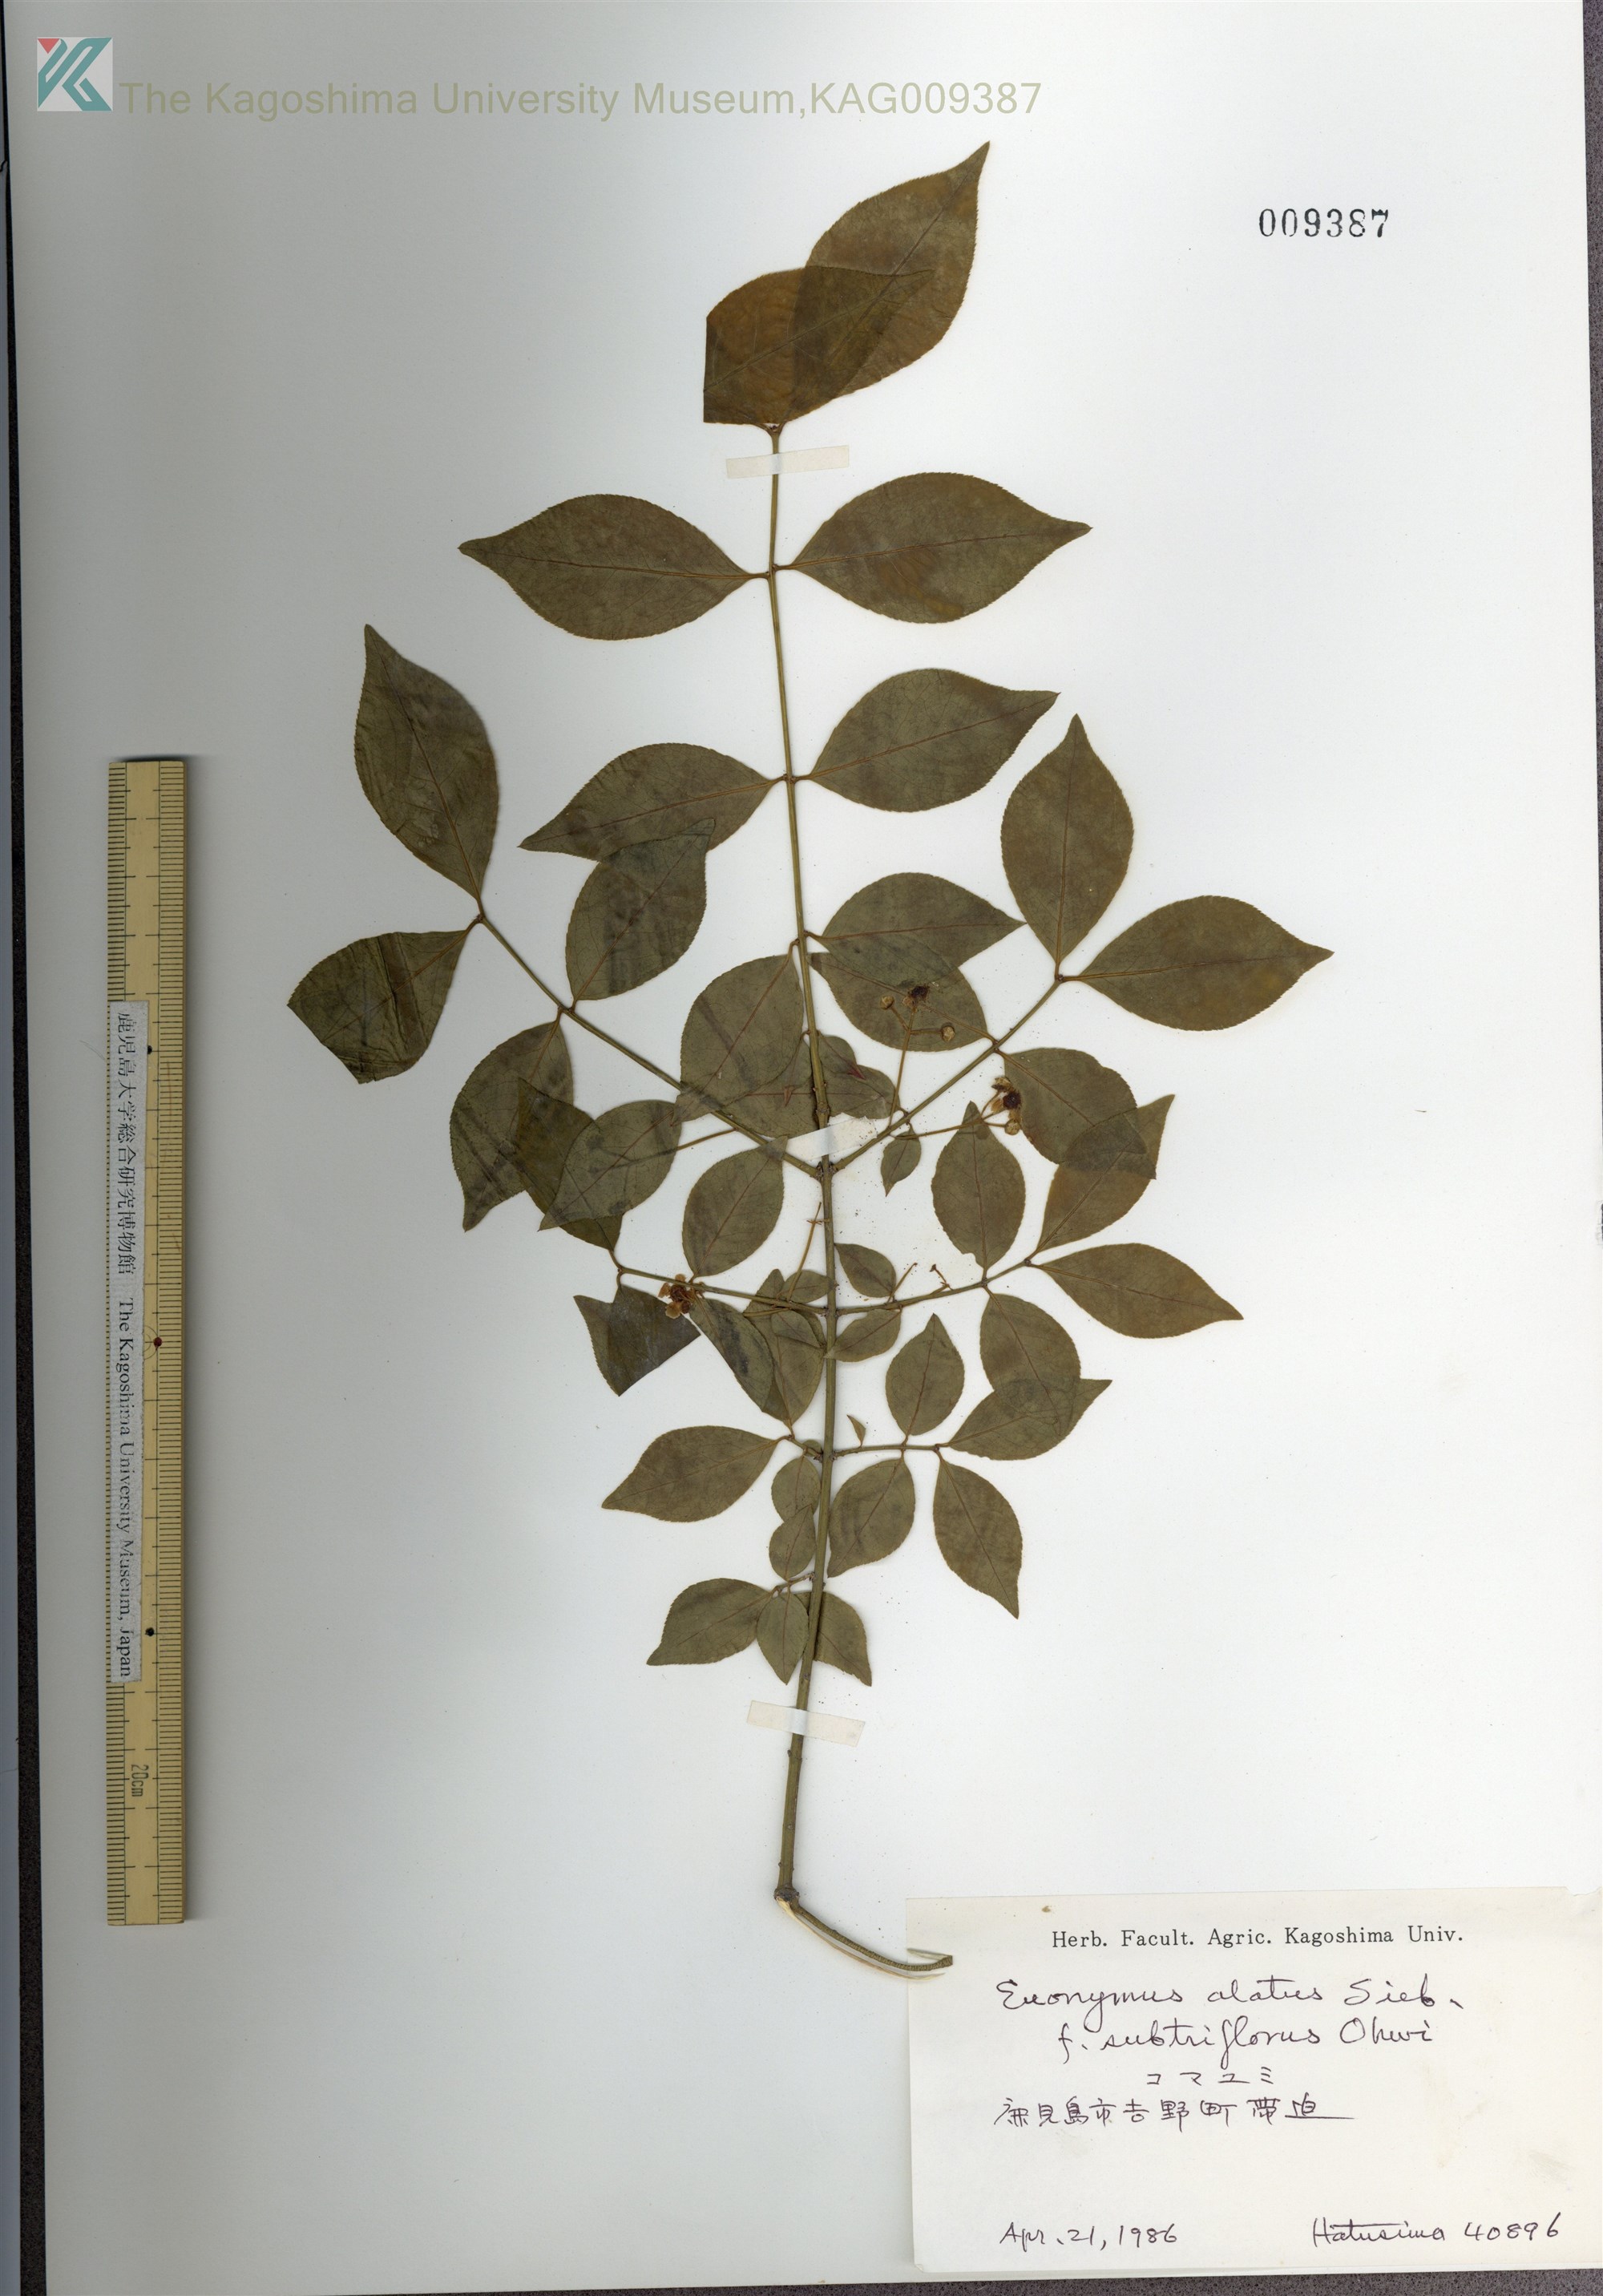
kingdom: Plantae
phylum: Tracheophyta
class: Magnoliopsida
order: Celastrales
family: Celastraceae
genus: Euonymus
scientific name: Euonymus alatus
